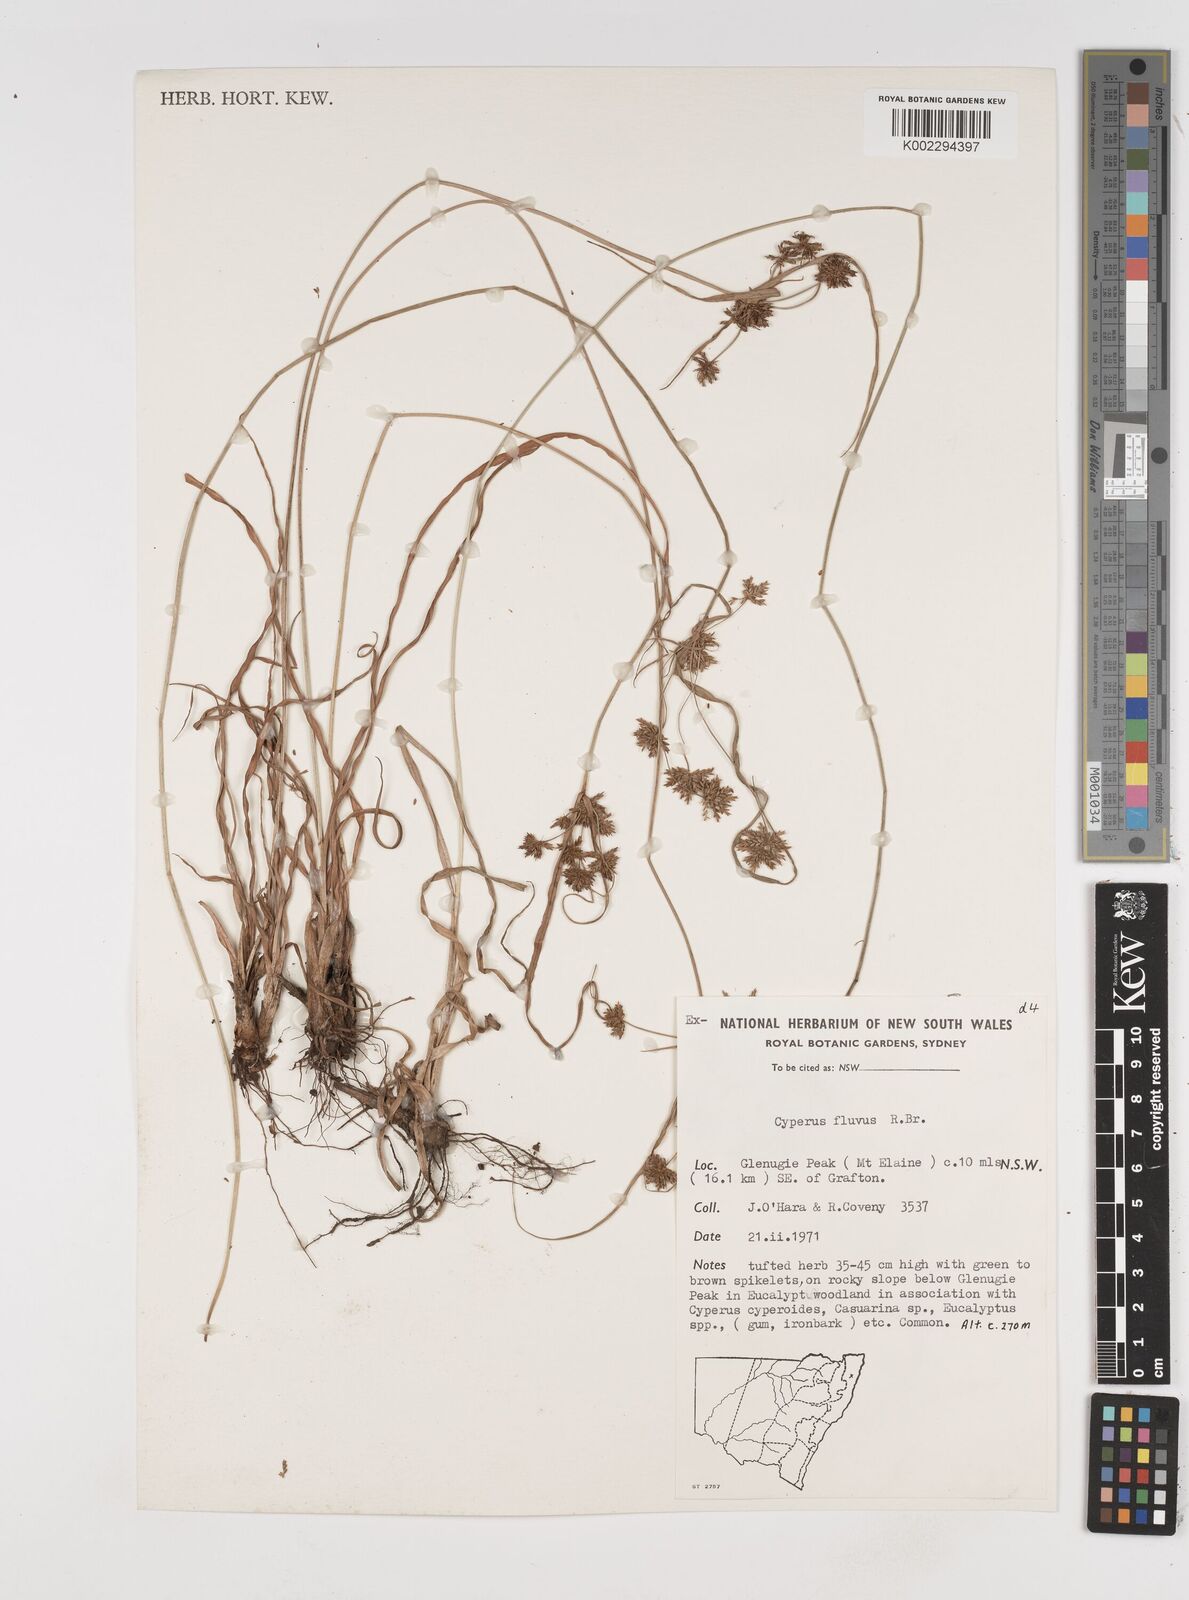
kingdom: Plantae
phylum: Tracheophyta
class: Liliopsida
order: Poales
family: Cyperaceae
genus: Cyperus
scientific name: Cyperus fulvus
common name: Sticky sedge
